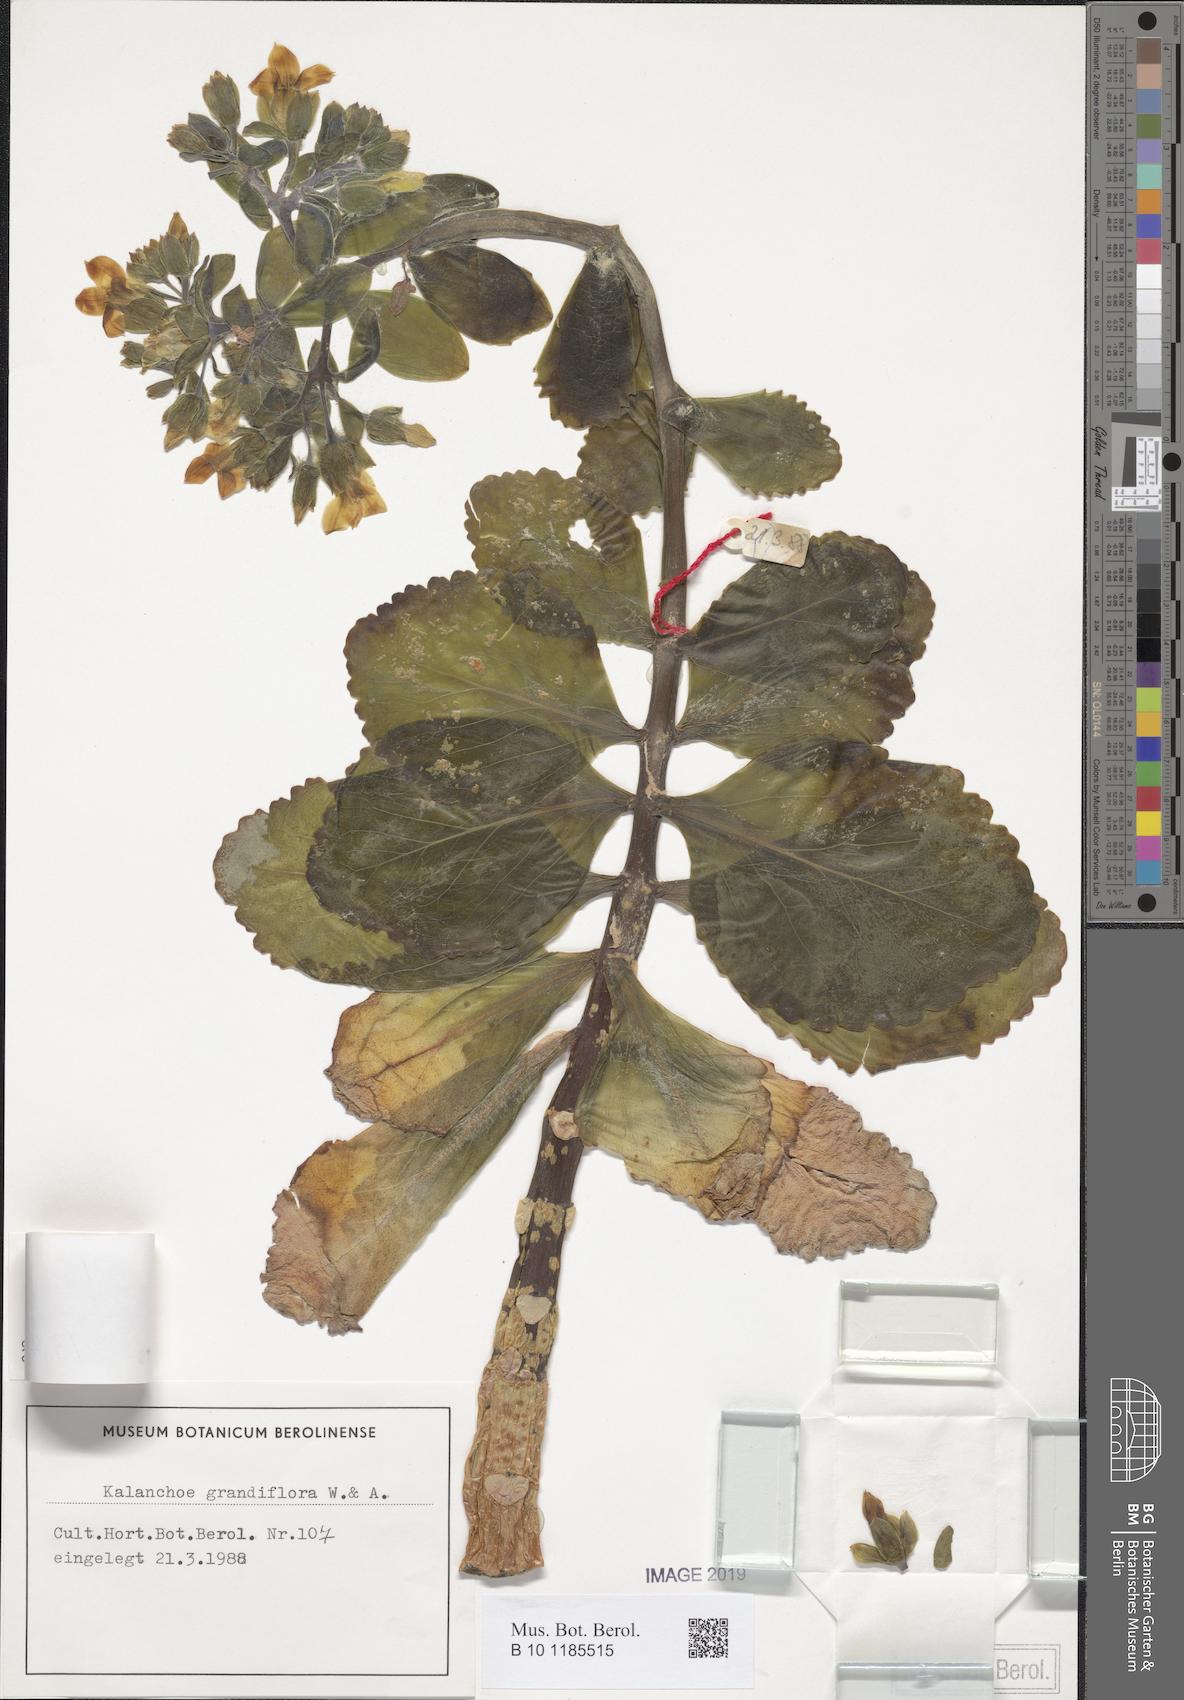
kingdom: Plantae
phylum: Tracheophyta
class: Magnoliopsida
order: Saxifragales
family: Crassulaceae
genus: Kalanchoe
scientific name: Kalanchoe grandiflora
